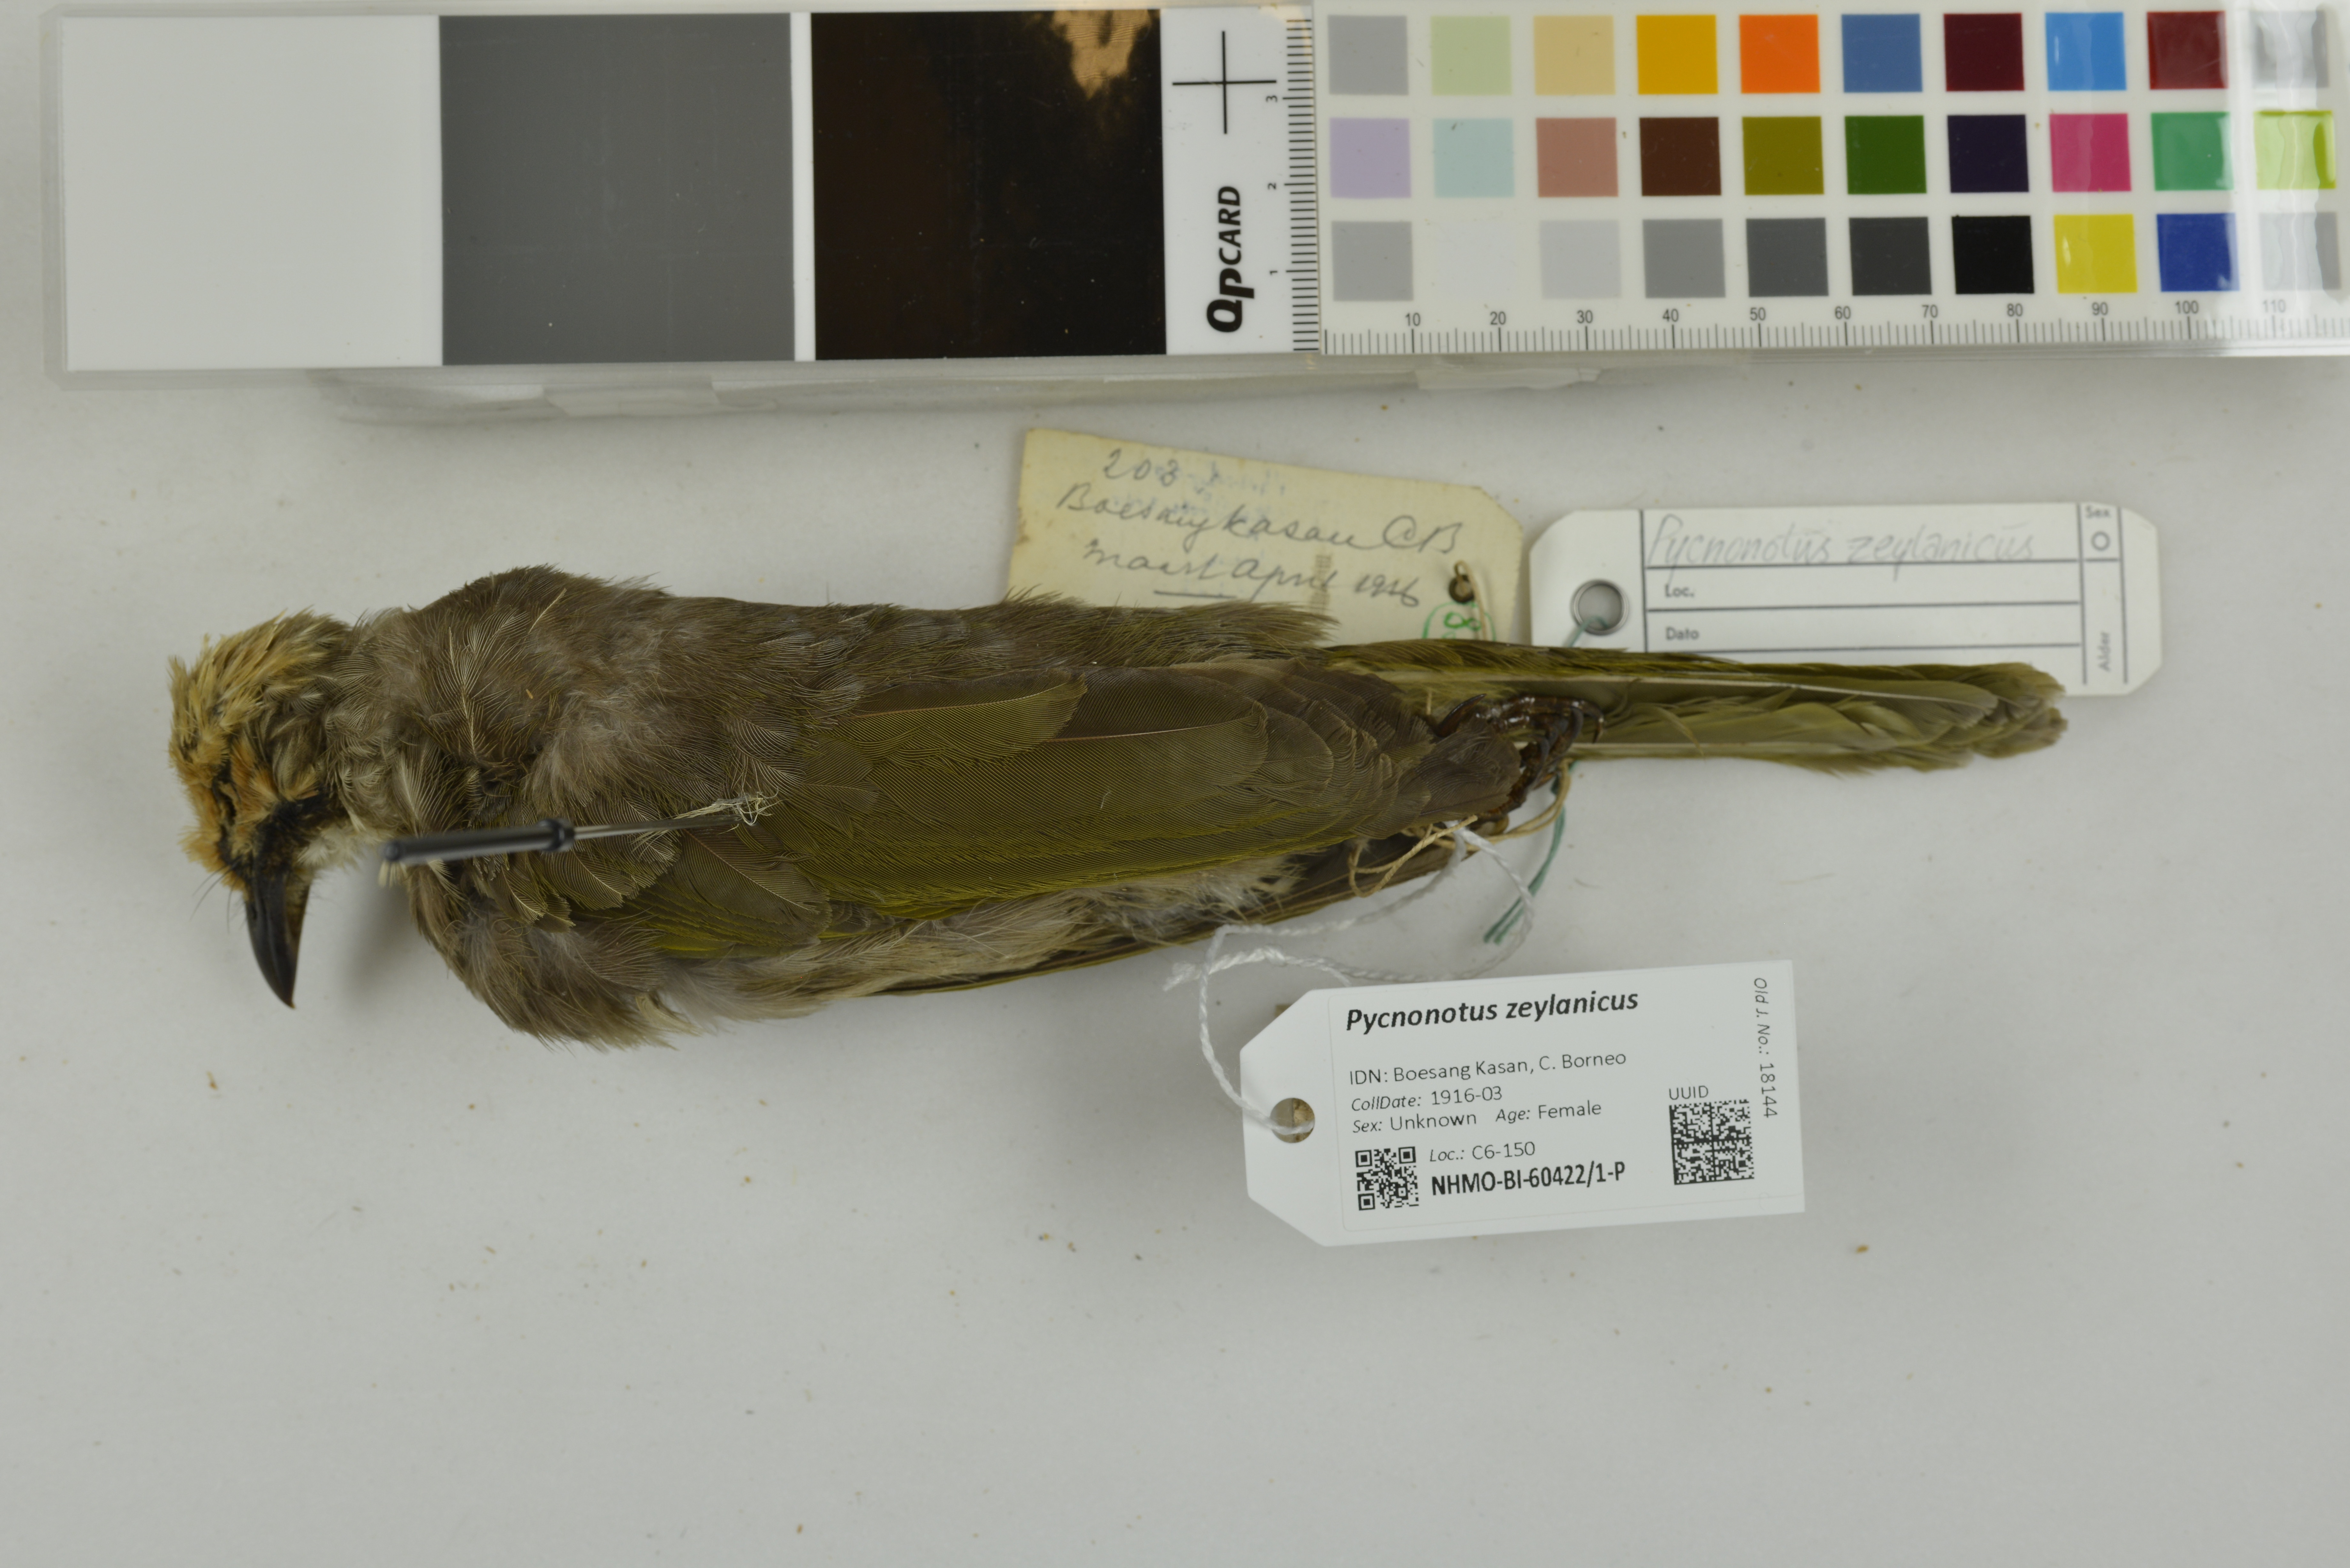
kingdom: Animalia
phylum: Chordata
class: Aves
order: Passeriformes
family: Pycnonotidae
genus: Pycnonotus
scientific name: Pycnonotus zeylanicus
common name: Straw-headed bulbul
